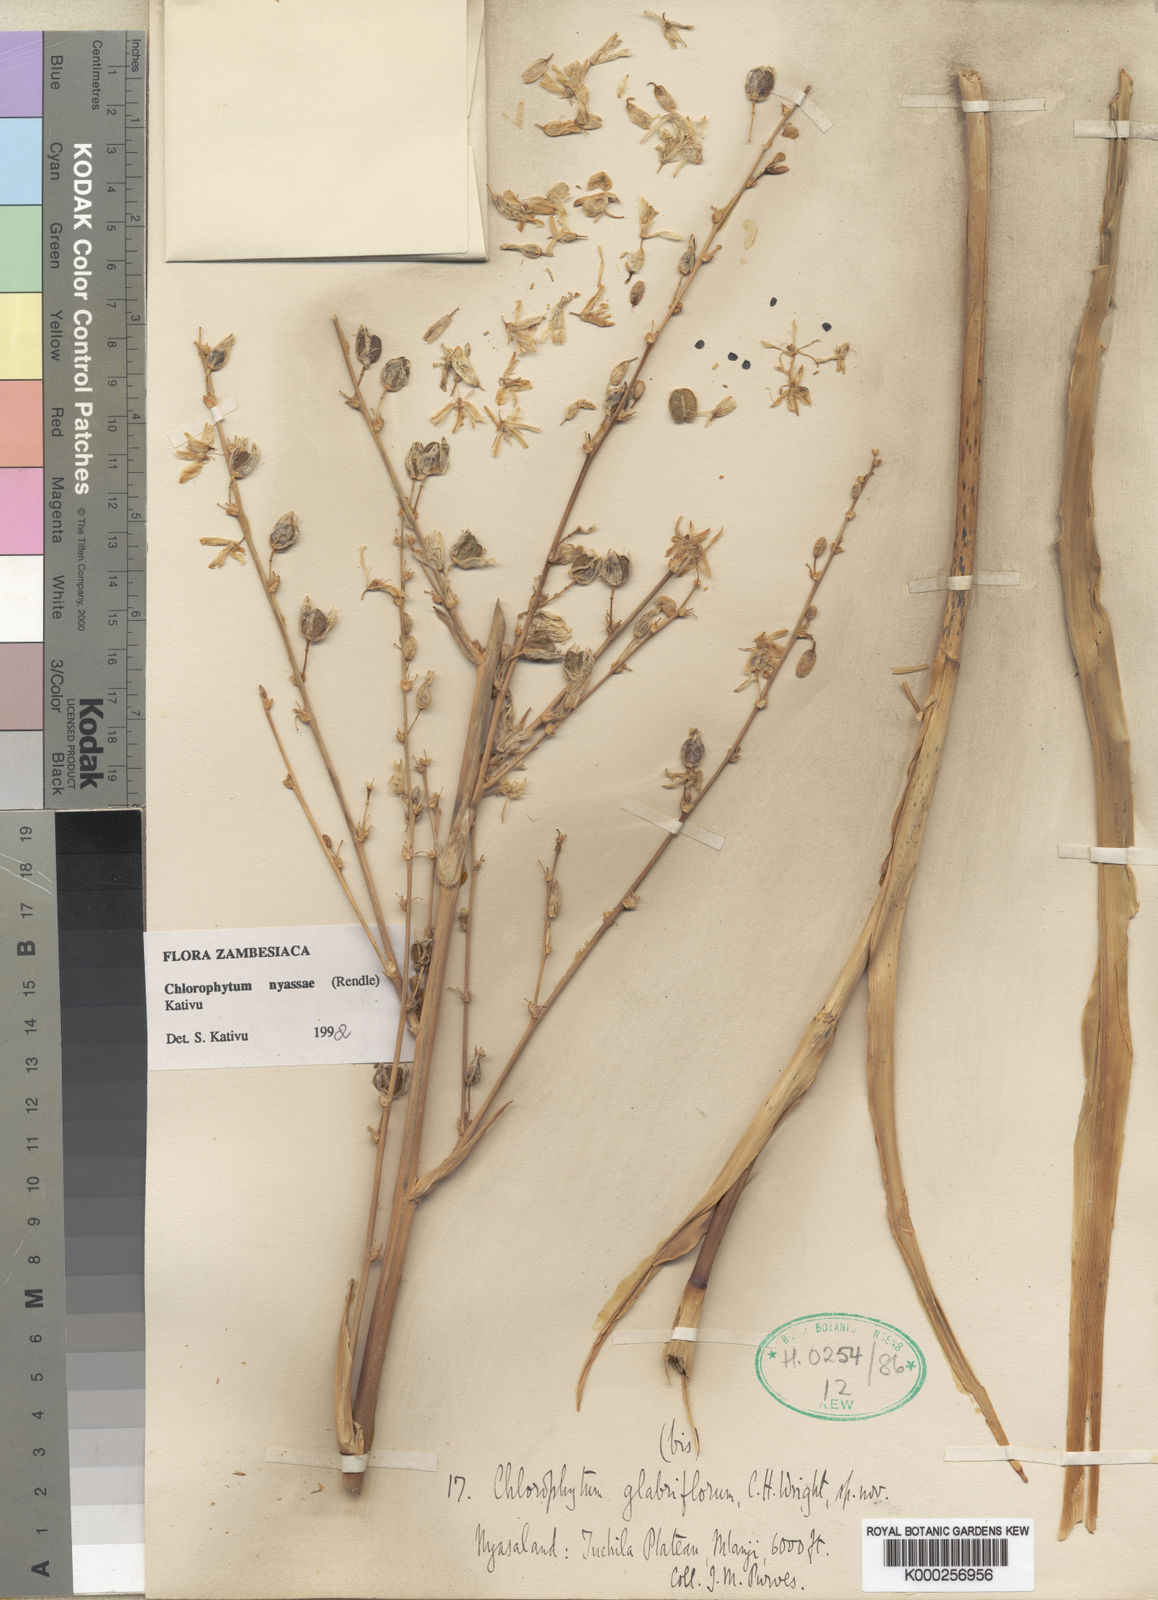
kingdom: Plantae
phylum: Tracheophyta
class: Liliopsida
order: Asparagales
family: Asparagaceae
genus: Chlorophytum
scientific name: Chlorophytum nyasae
